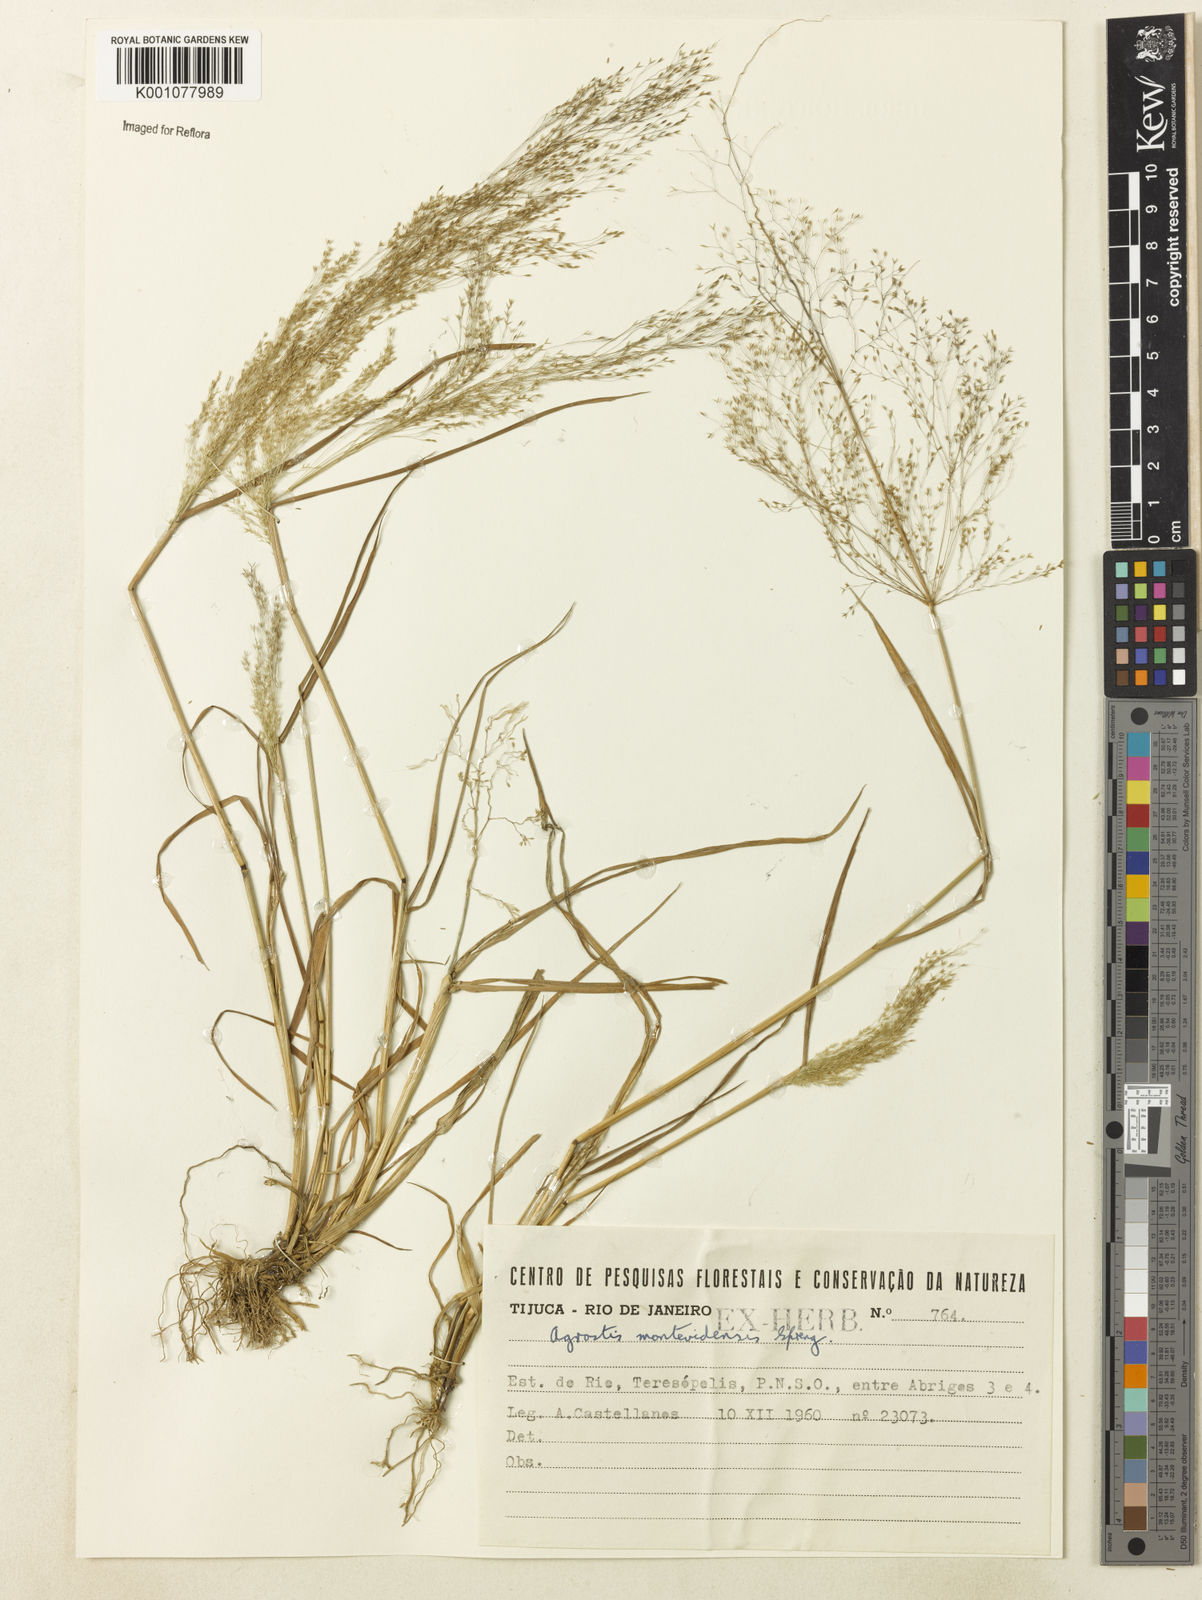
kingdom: Plantae
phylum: Tracheophyta
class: Liliopsida
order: Poales
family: Poaceae
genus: Agrostis
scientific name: Agrostis montevidensis
